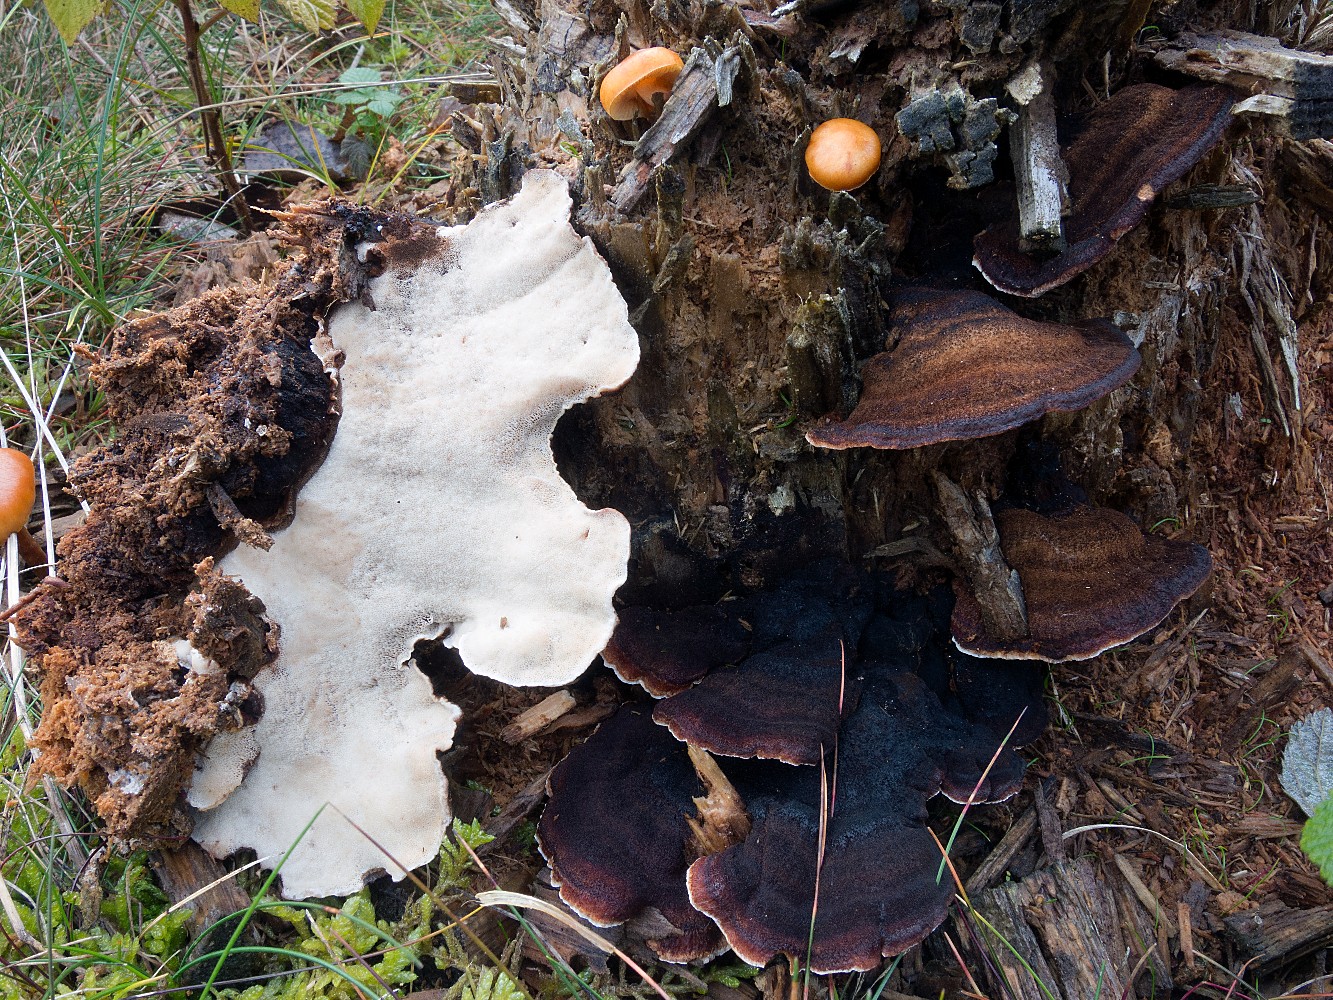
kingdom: Fungi
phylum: Basidiomycota
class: Agaricomycetes
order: Polyporales
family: Ischnodermataceae
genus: Ischnoderma
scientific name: Ischnoderma benzoinum
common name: gran-tjæreporesvamp
